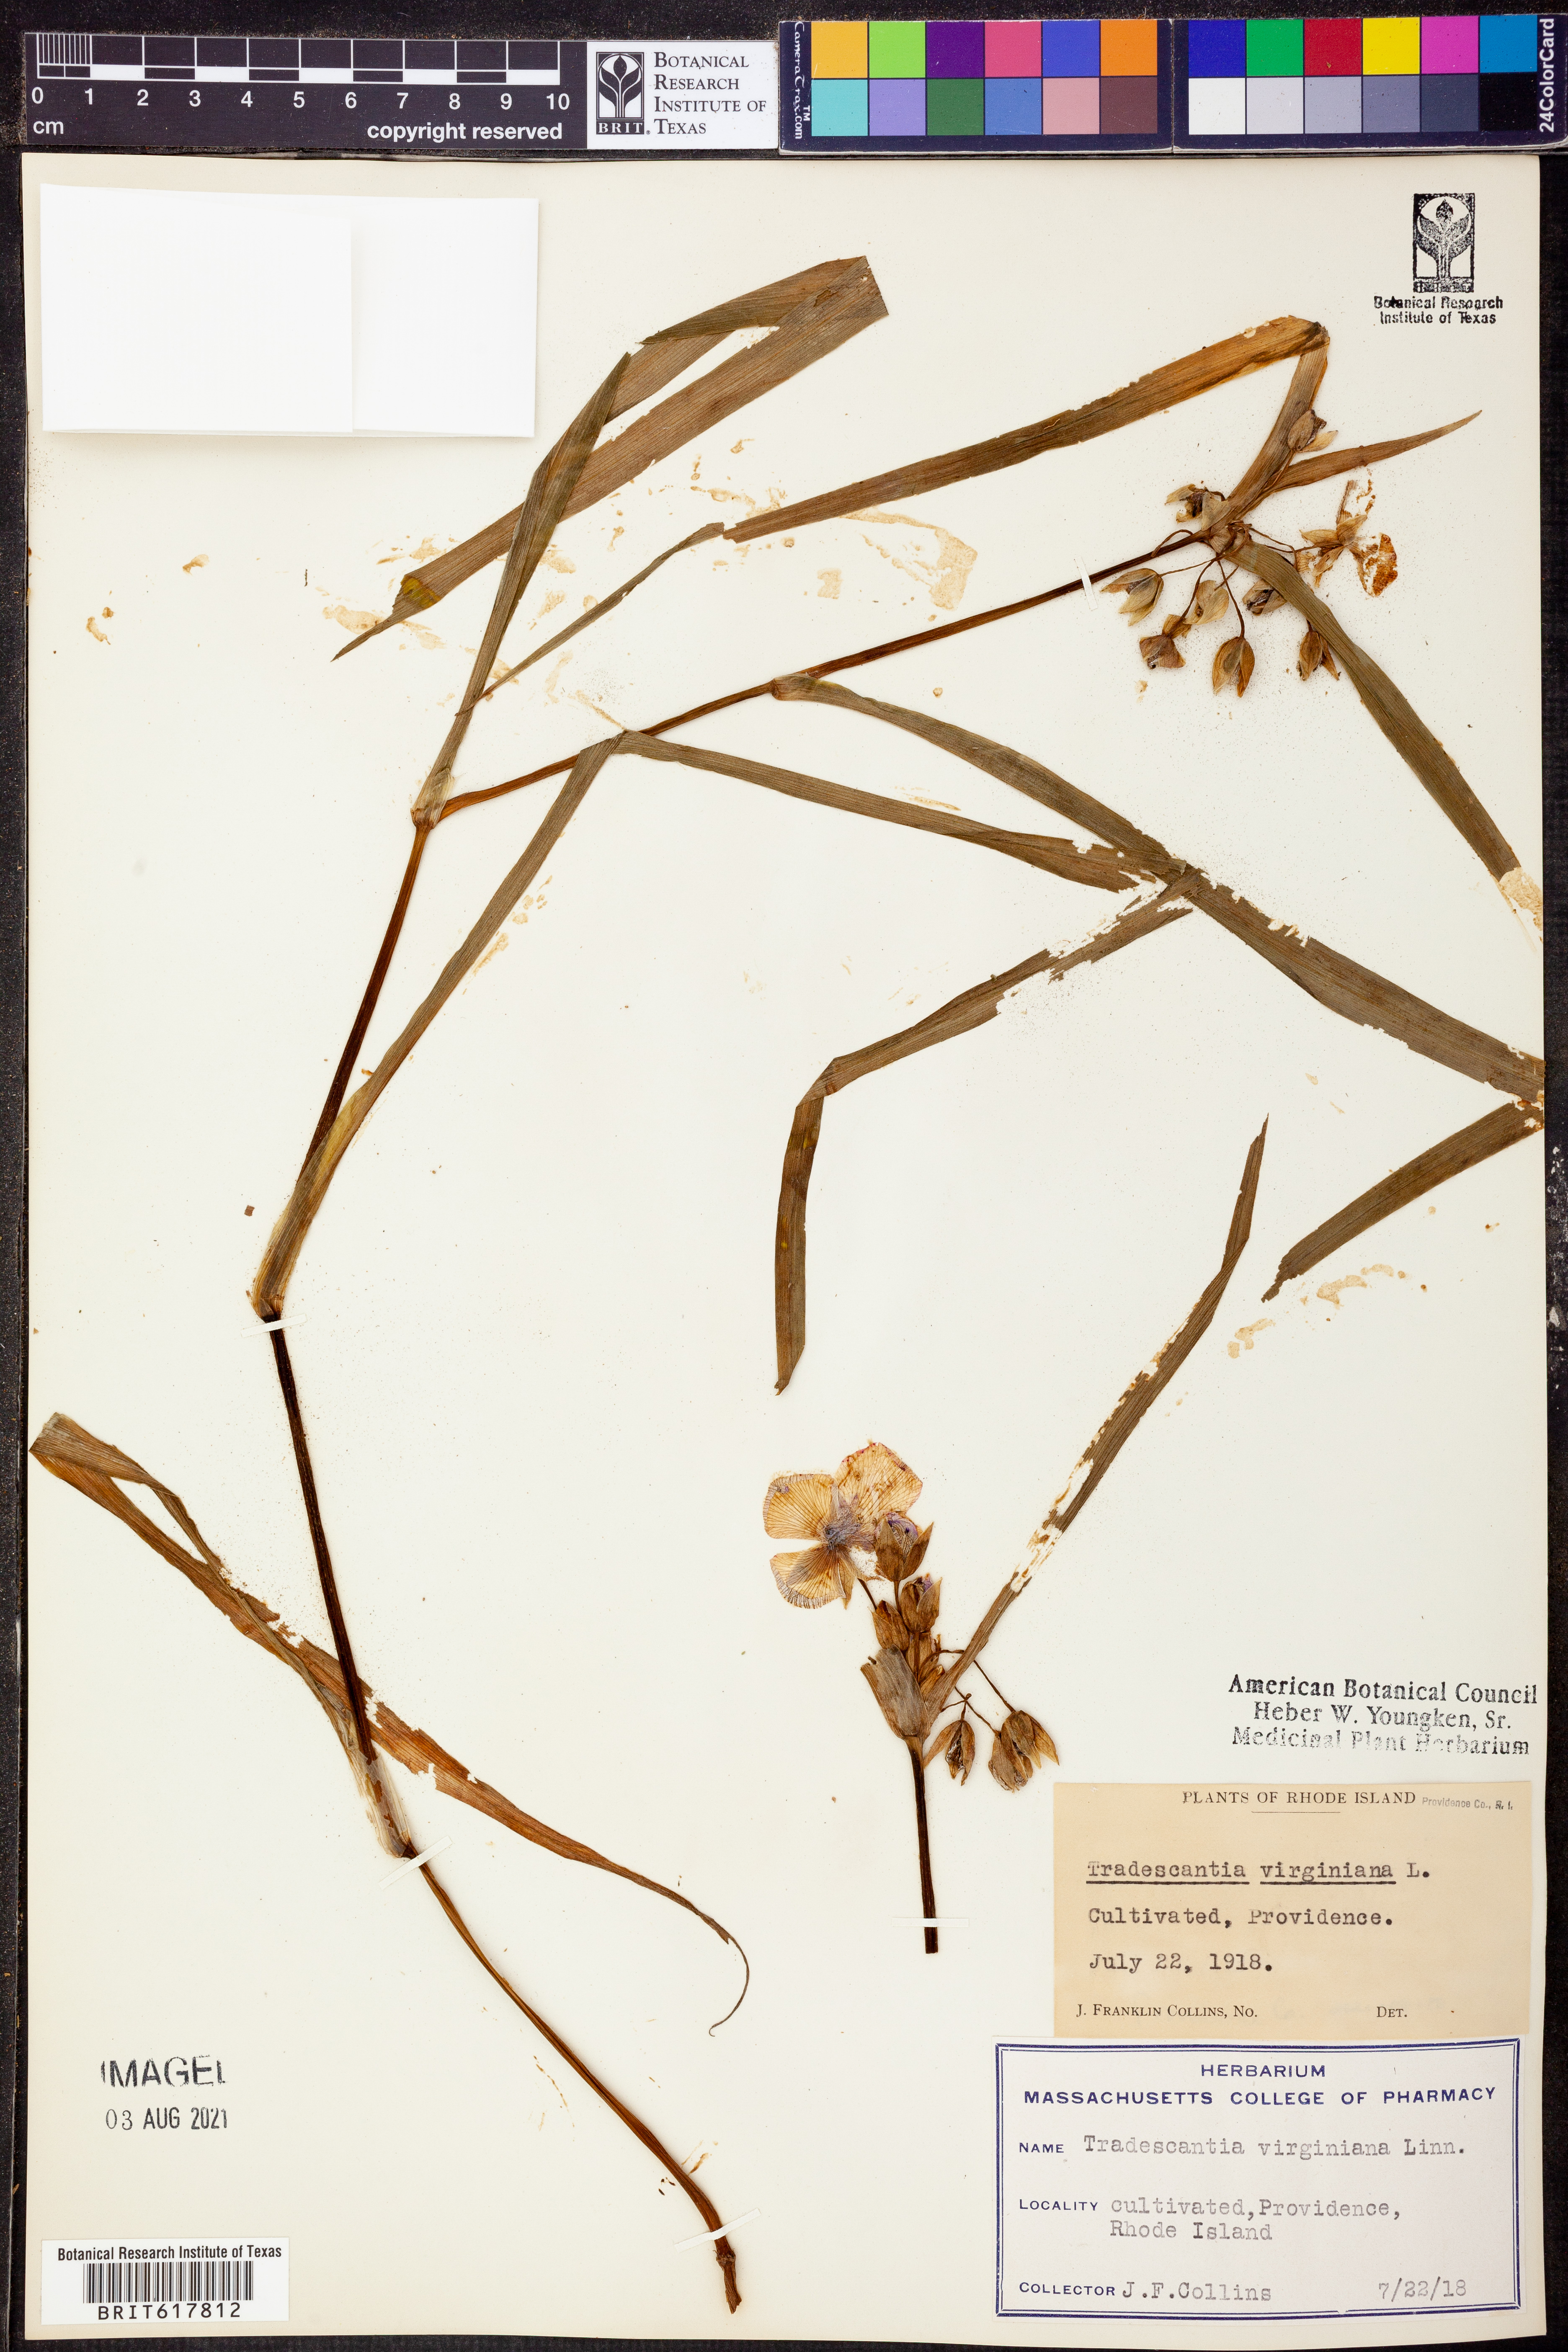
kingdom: Plantae
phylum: Tracheophyta
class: Liliopsida
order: Commelinales
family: Commelinaceae
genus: Tradescantia
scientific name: Tradescantia virginiana
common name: Spiderwort
